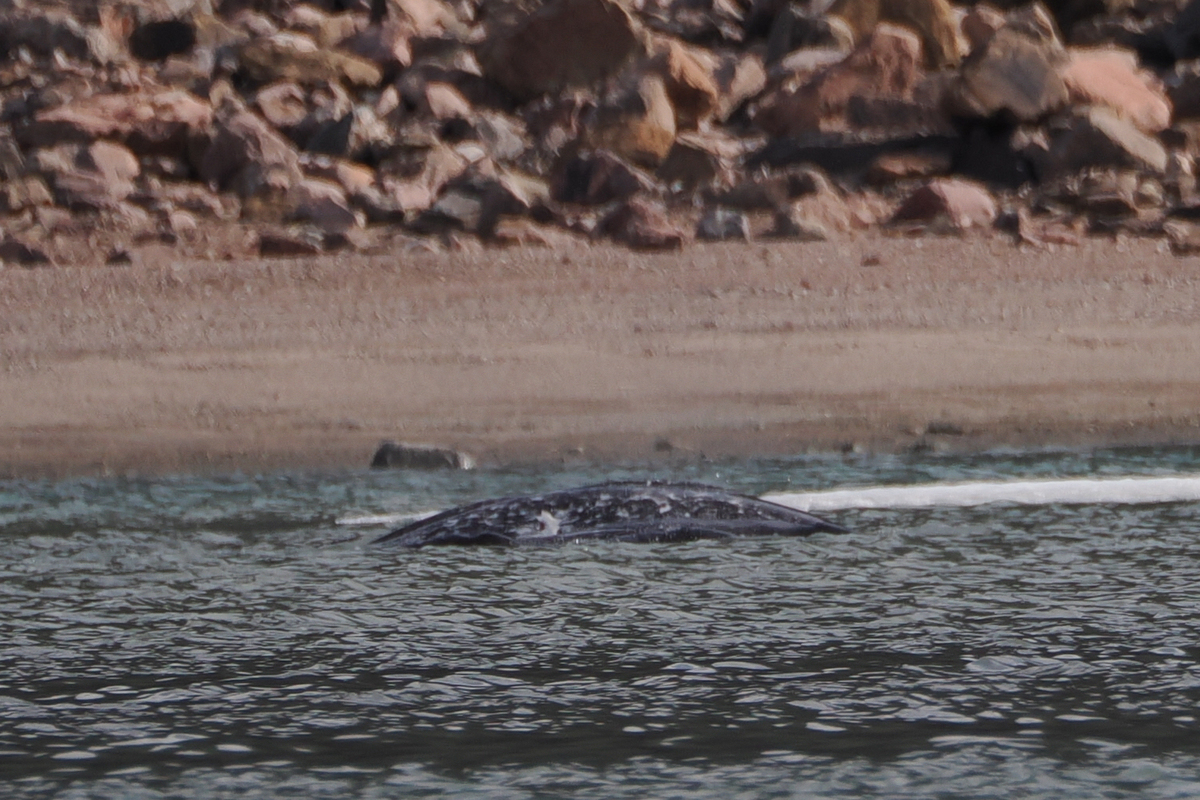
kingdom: Animalia
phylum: Chordata
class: Mammalia
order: Cetacea
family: Monodontidae
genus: Monodon
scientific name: Monodon monoceros
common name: Narwhal
